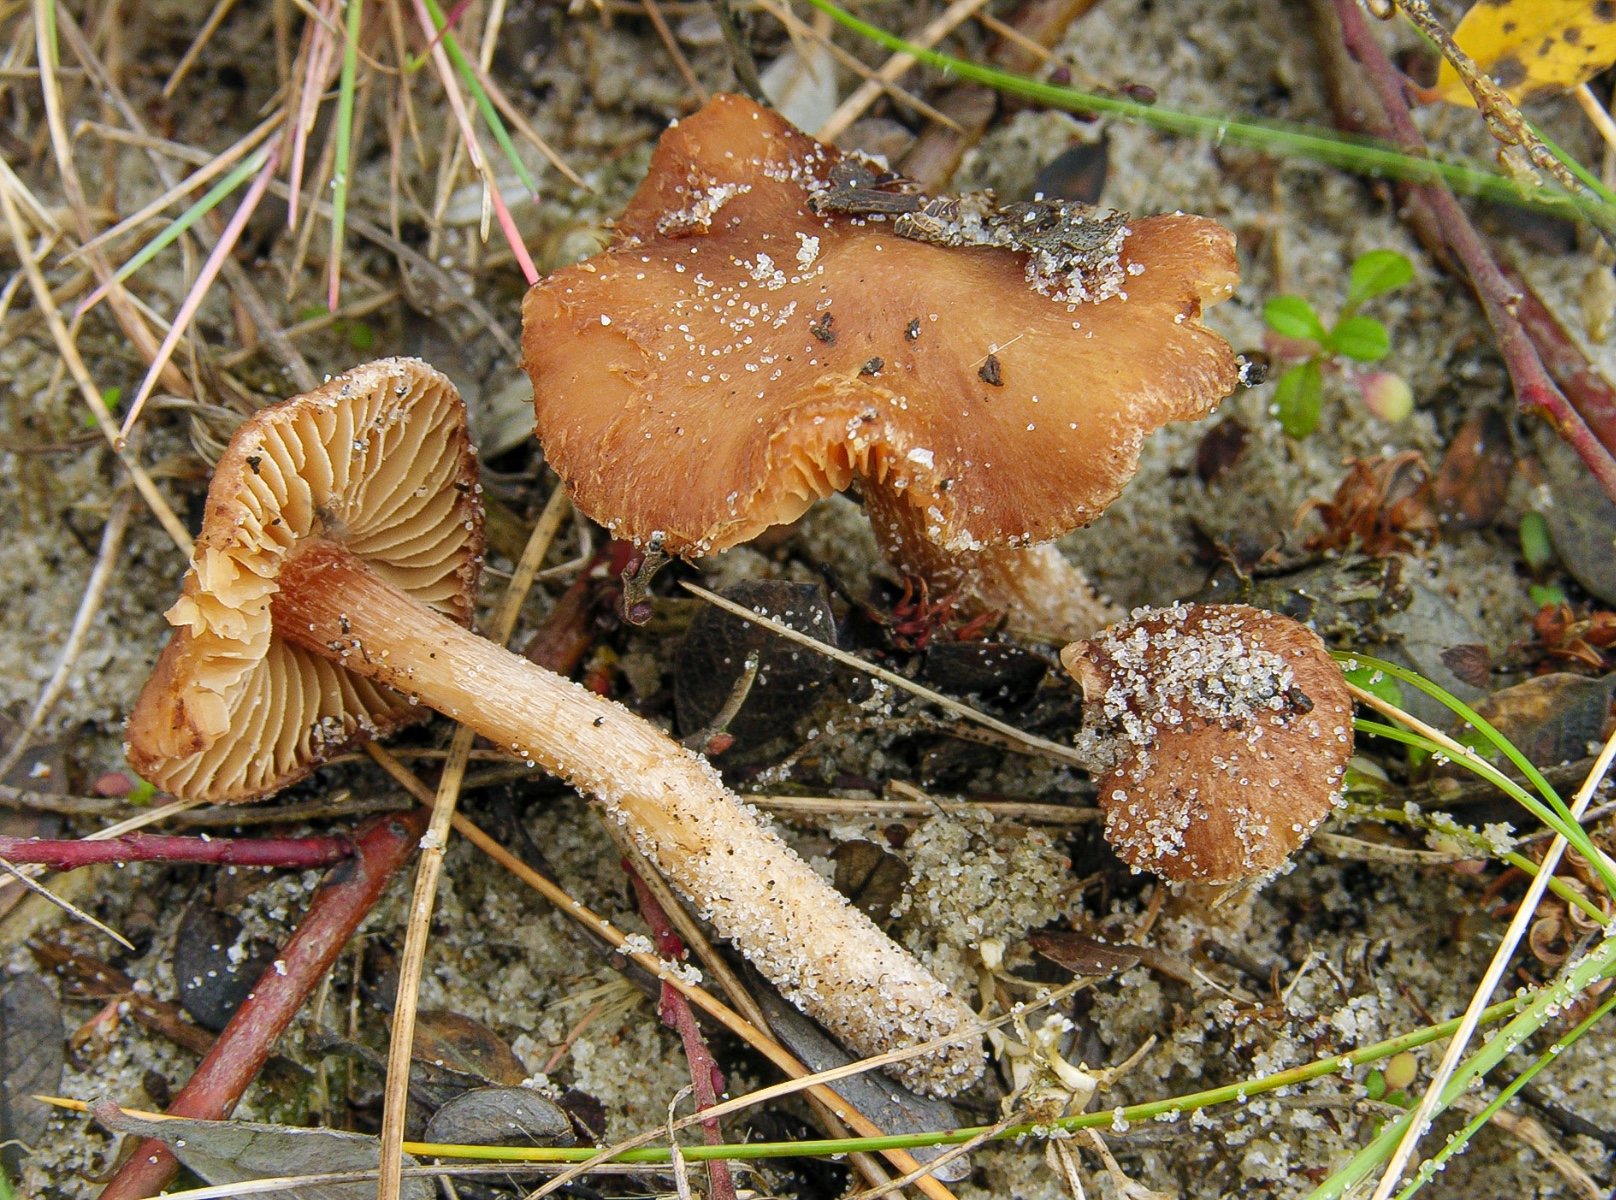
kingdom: Fungi
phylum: Basidiomycota
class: Agaricomycetes
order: Agaricales
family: Inocybaceae
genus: Inocybe
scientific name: Inocybe inodora
